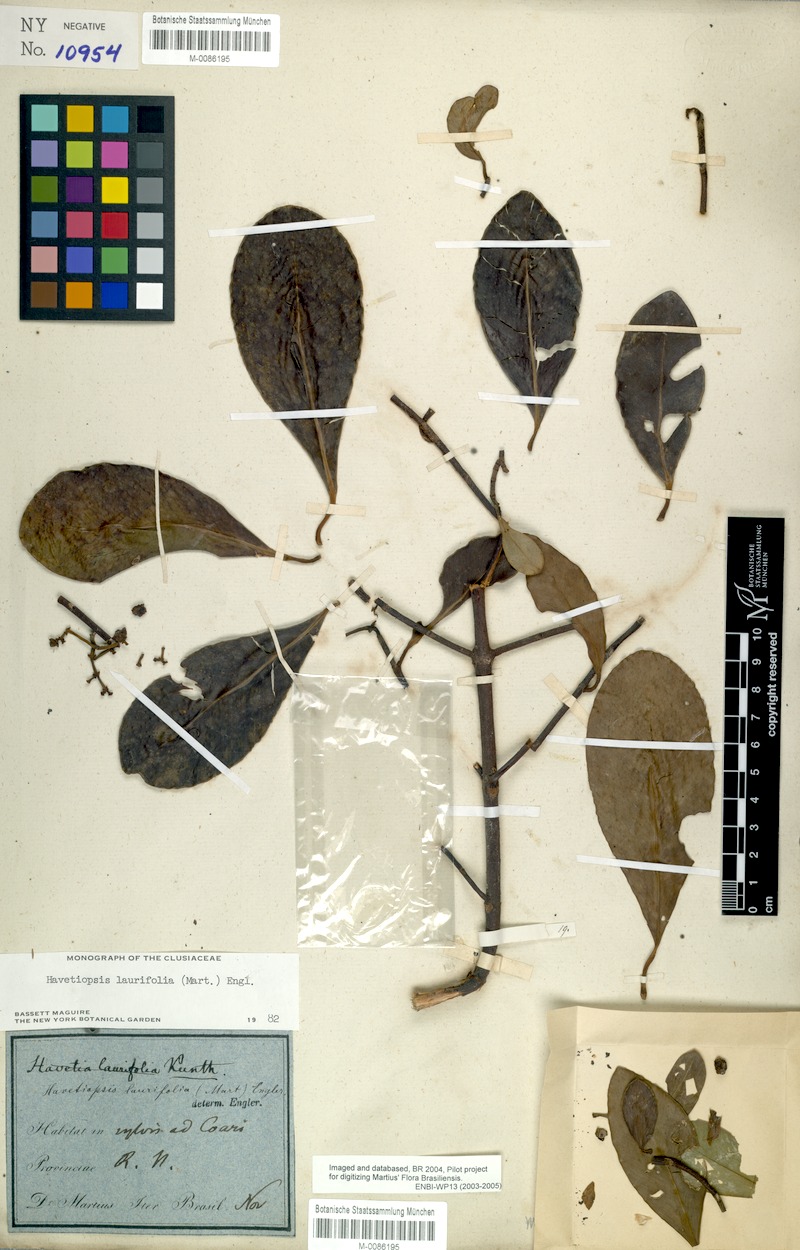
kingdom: Plantae
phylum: Tracheophyta
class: Magnoliopsida
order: Malpighiales
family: Clusiaceae
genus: Clusia
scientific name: Clusia flavida
